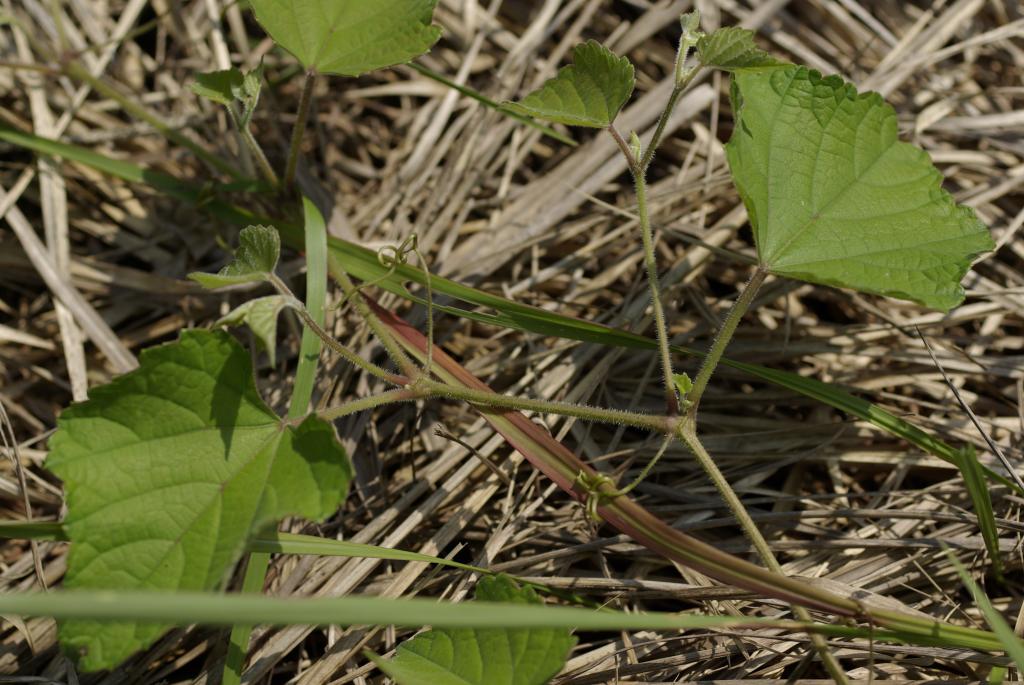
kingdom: Plantae
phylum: Tracheophyta
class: Magnoliopsida
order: Vitales
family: Vitaceae
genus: Ampelopsis
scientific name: Ampelopsis glandulosa
